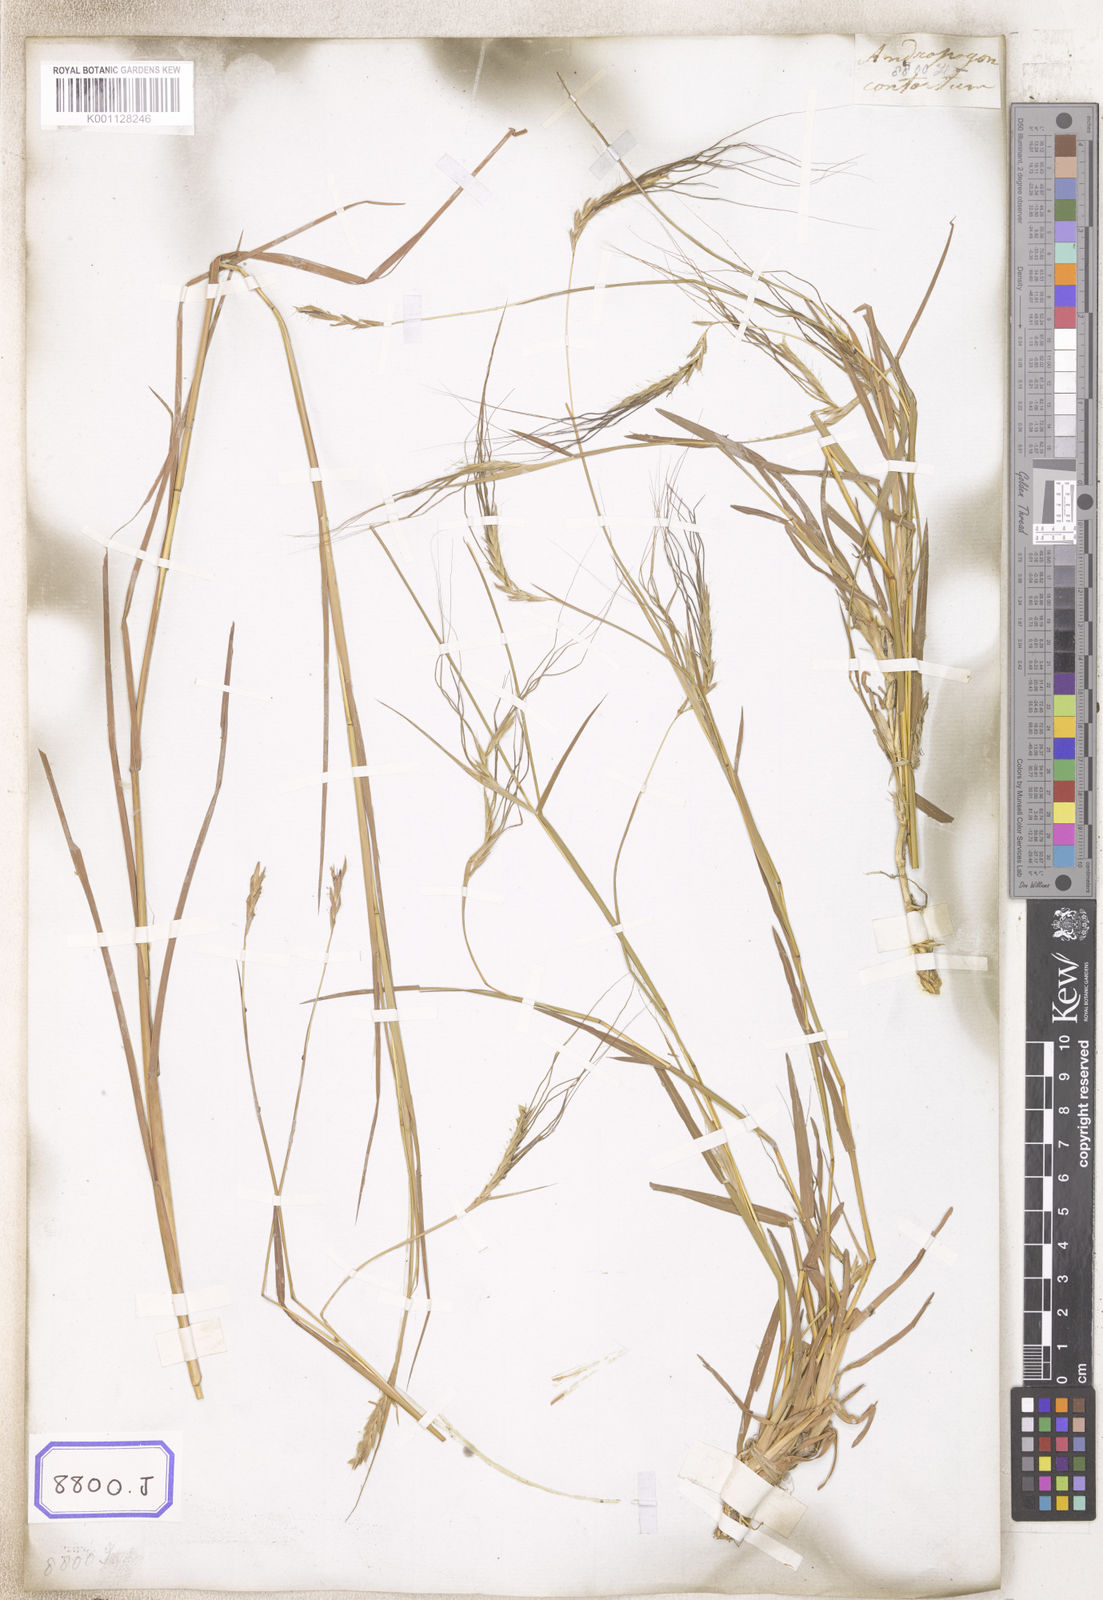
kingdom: Plantae
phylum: Tracheophyta
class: Liliopsida
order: Poales
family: Poaceae
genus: Heteropogon
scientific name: Heteropogon contortus
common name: Tanglehead
